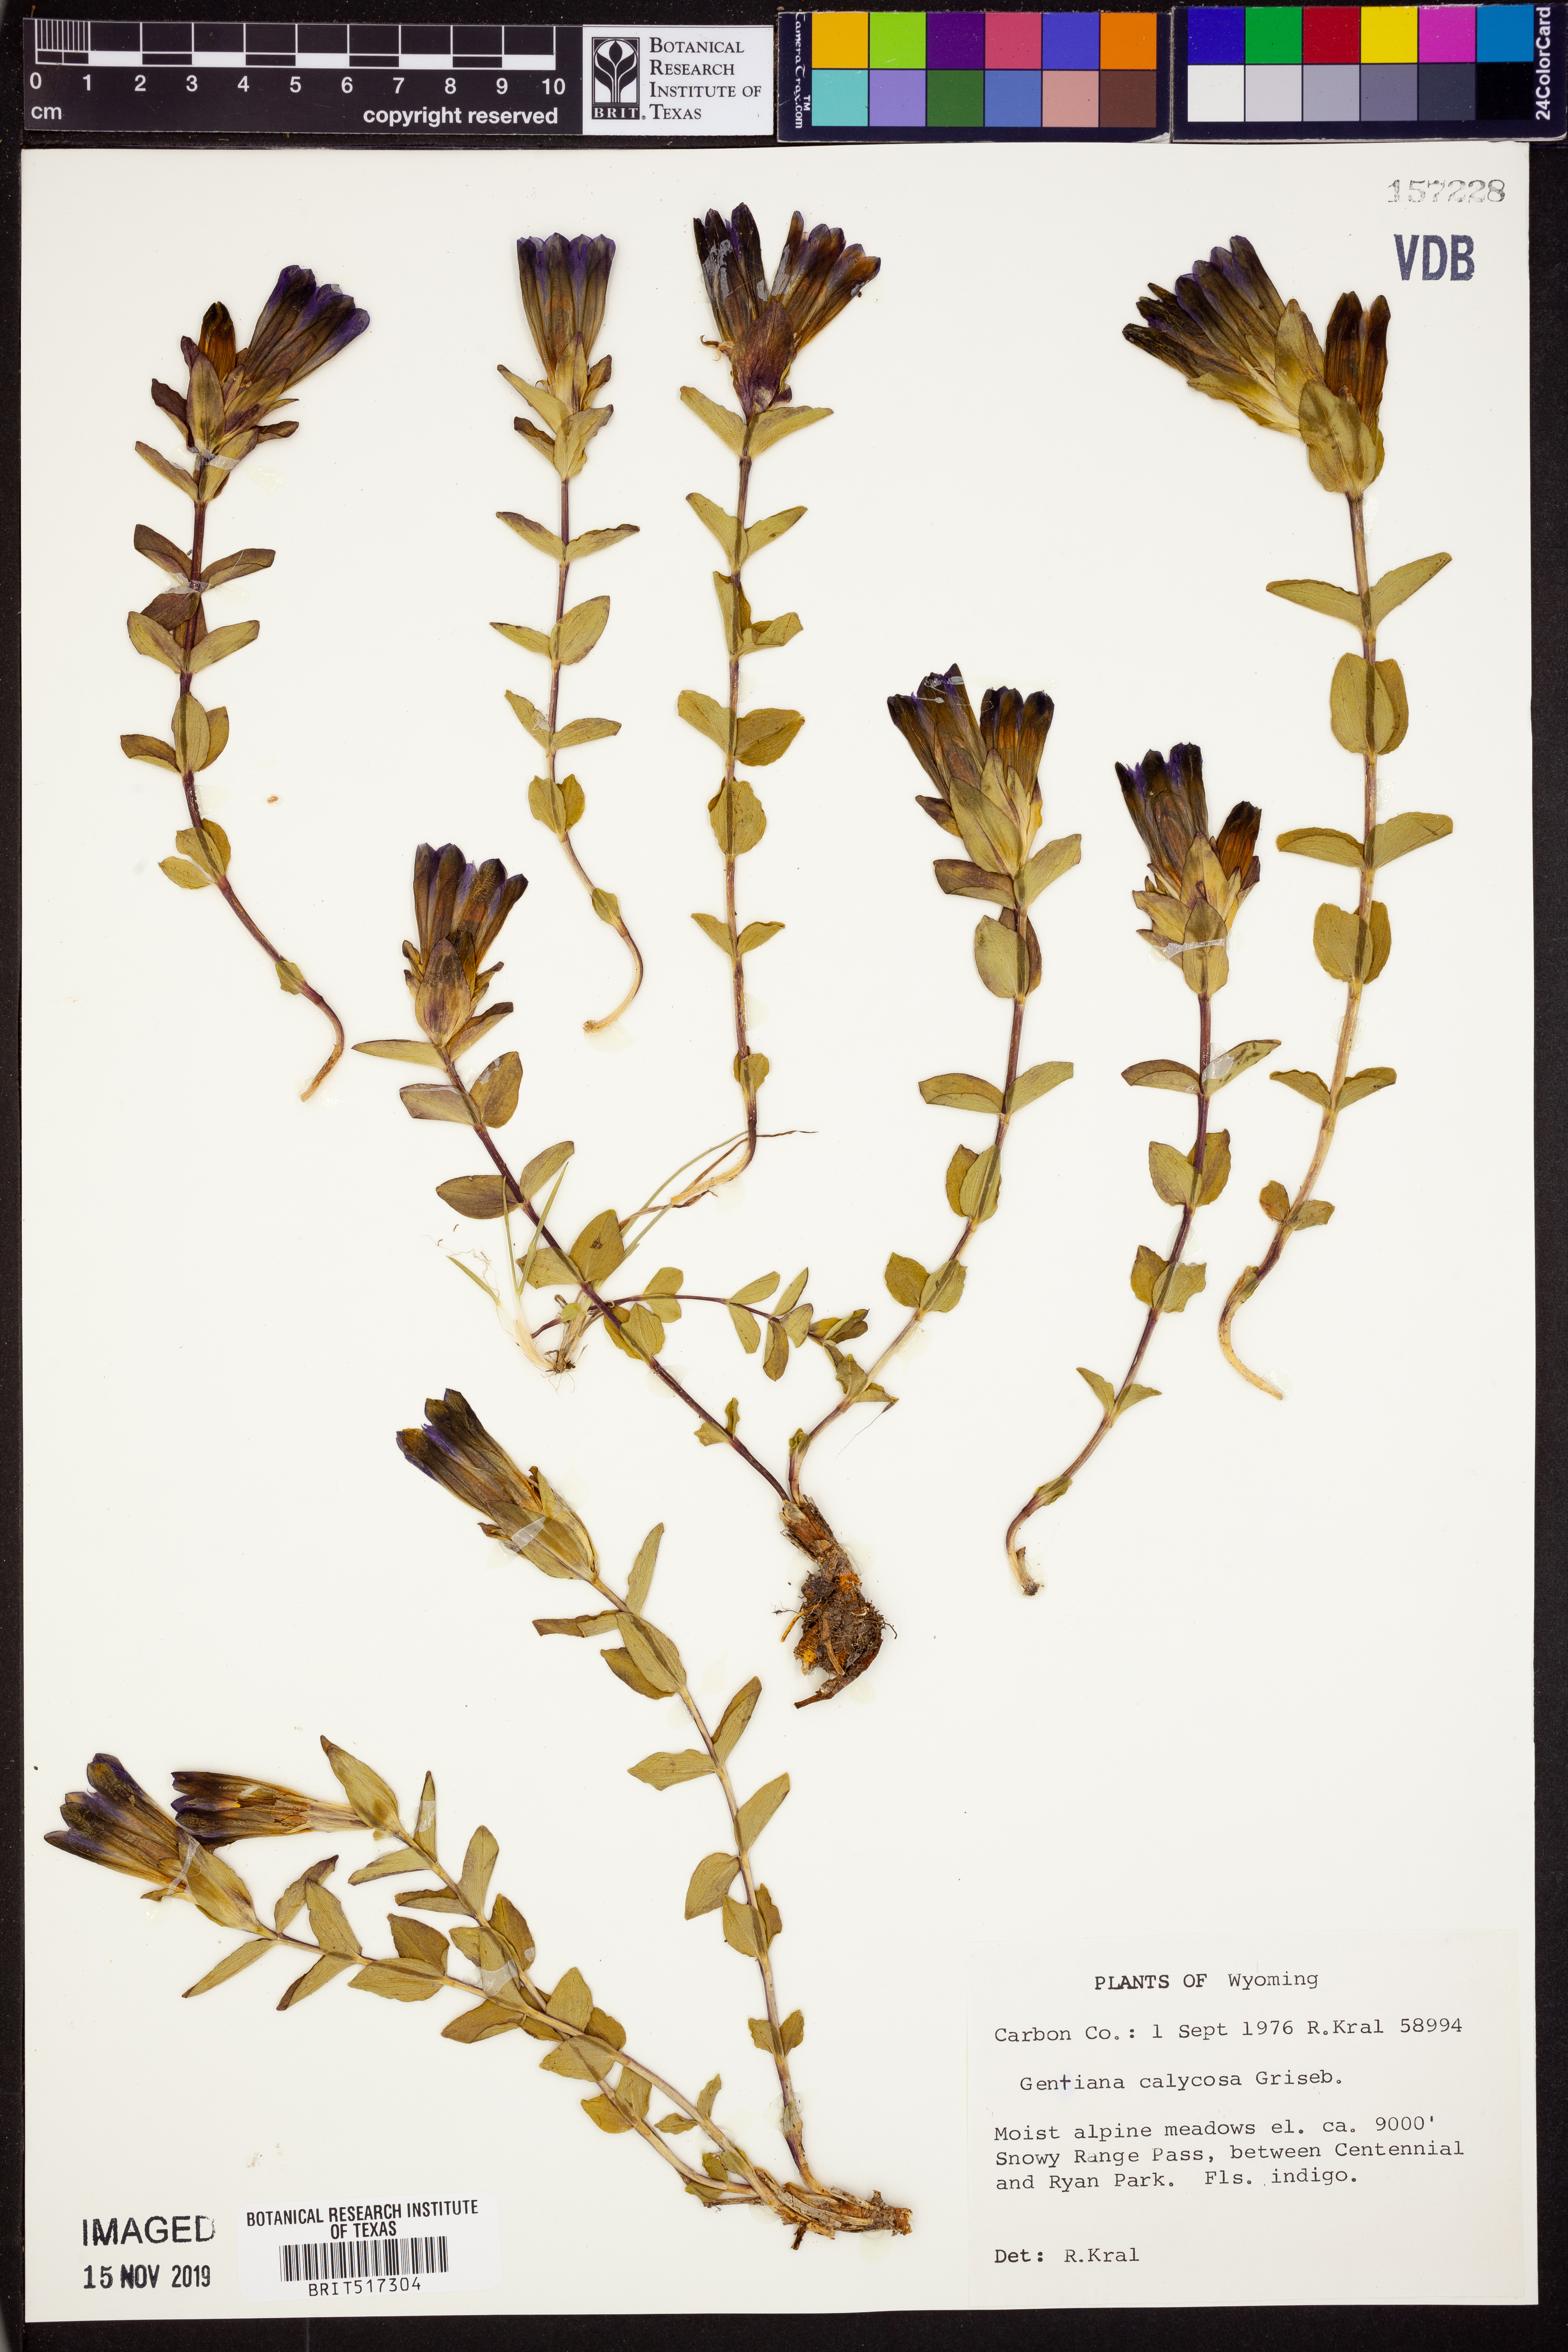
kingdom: Plantae
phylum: Tracheophyta
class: Magnoliopsida
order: Gentianales
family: Gentianaceae
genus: Gentiana
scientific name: Gentiana calycosa
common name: Rainier pleated gentian
